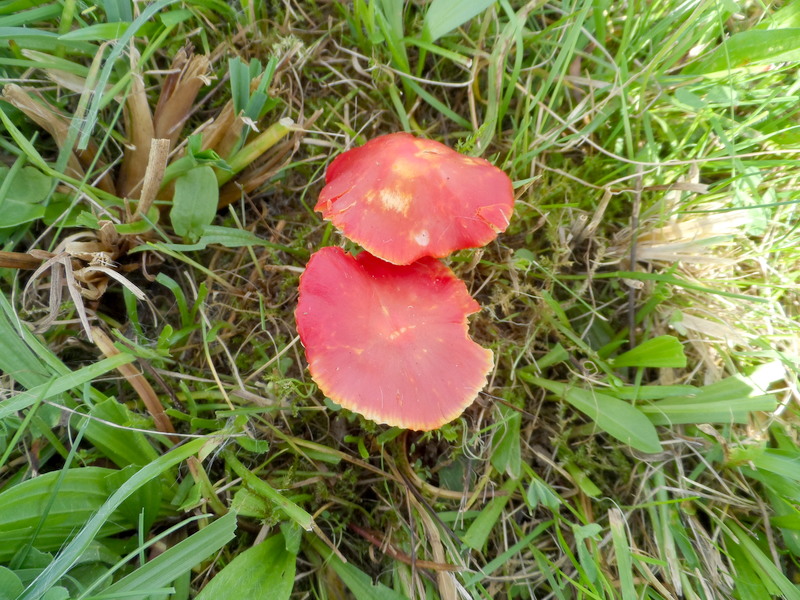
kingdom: Fungi
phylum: Basidiomycota
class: Agaricomycetes
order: Agaricales
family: Hygrophoraceae
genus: Hygrocybe
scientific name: Hygrocybe coccinea
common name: Scarlet hood
